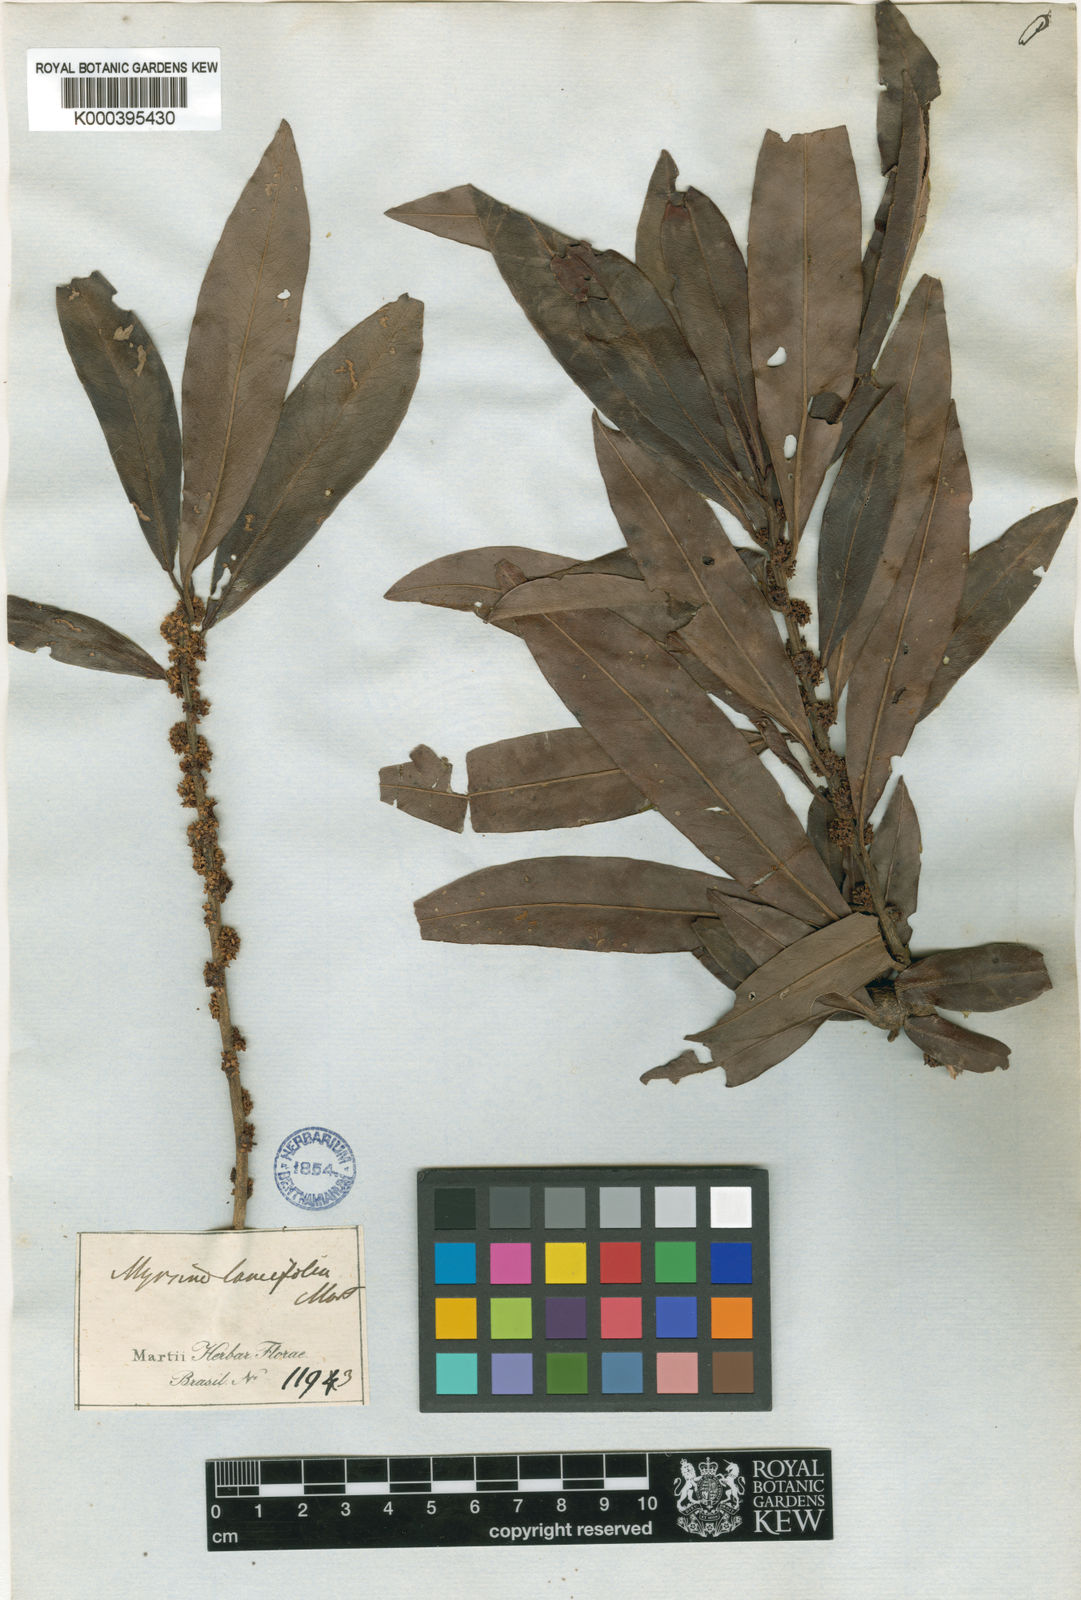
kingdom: Plantae
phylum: Tracheophyta
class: Magnoliopsida
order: Ericales
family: Primulaceae
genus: Myrsine
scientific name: Myrsine lancifolia
